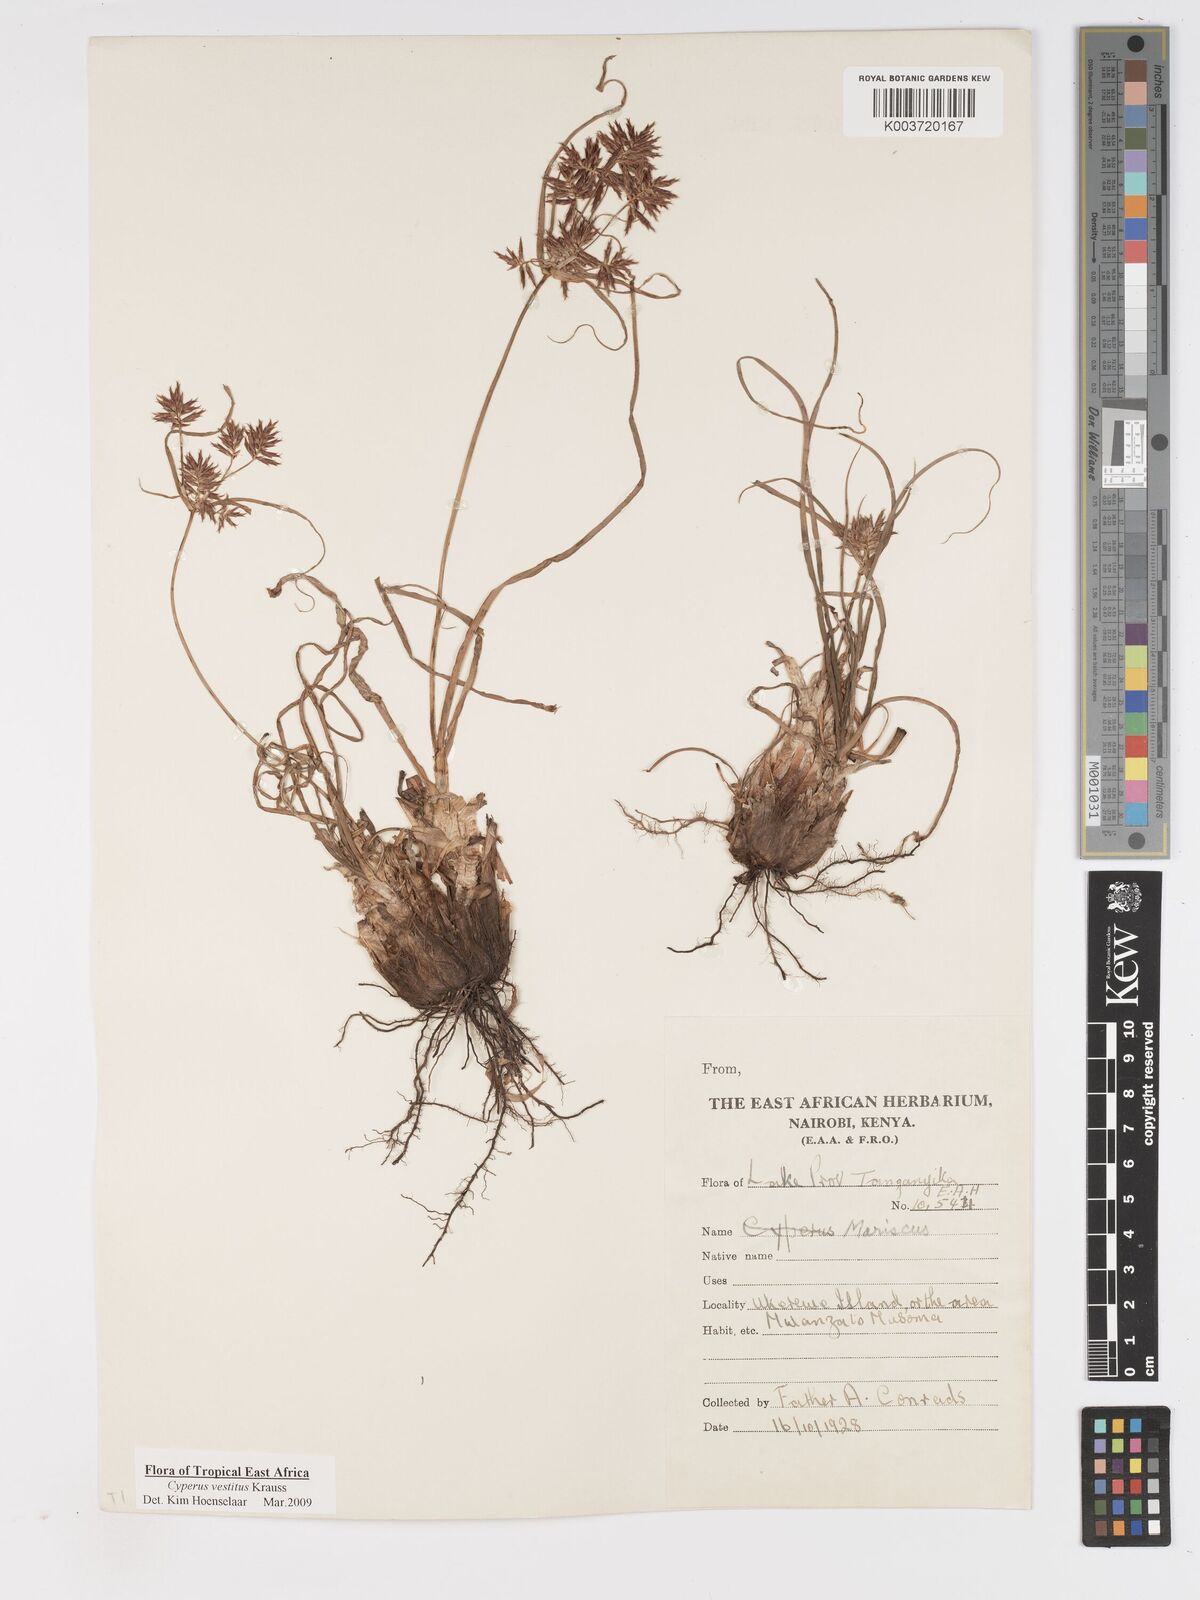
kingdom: Plantae
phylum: Tracheophyta
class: Liliopsida
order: Poales
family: Cyperaceae
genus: Cyperus
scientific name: Cyperus vestitus
